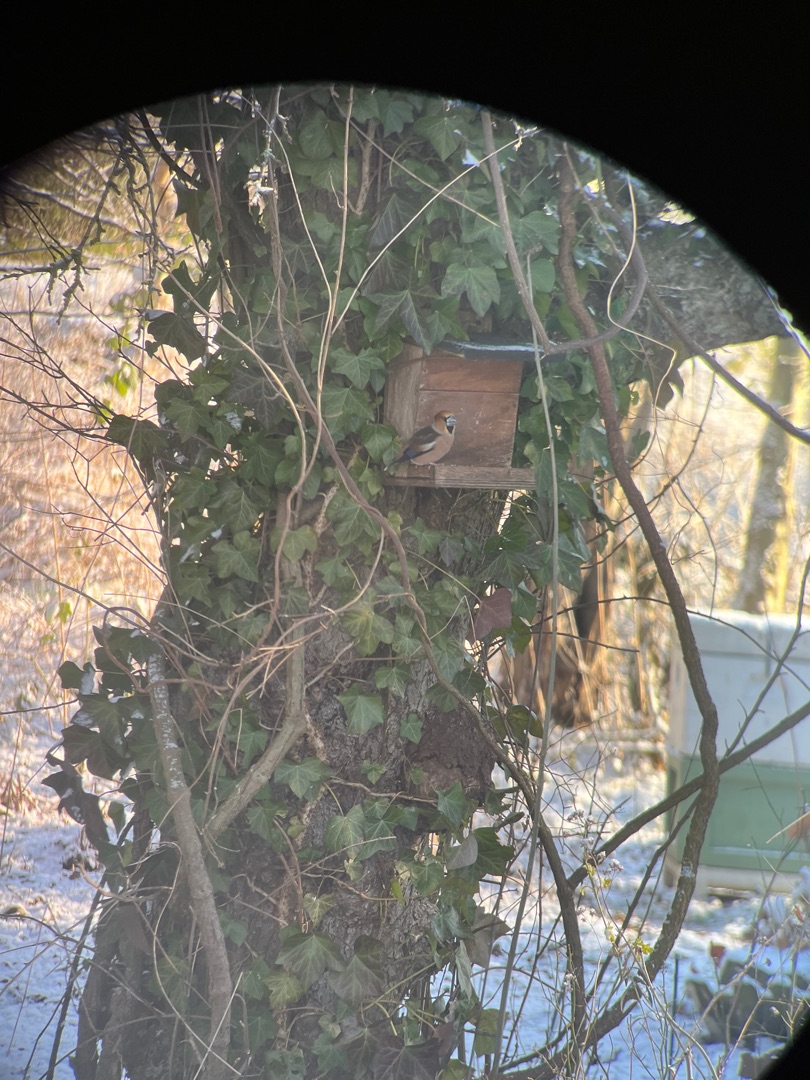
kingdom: Animalia
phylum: Chordata
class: Aves
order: Passeriformes
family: Fringillidae
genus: Coccothraustes
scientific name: Coccothraustes coccothraustes
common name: Kernebider
